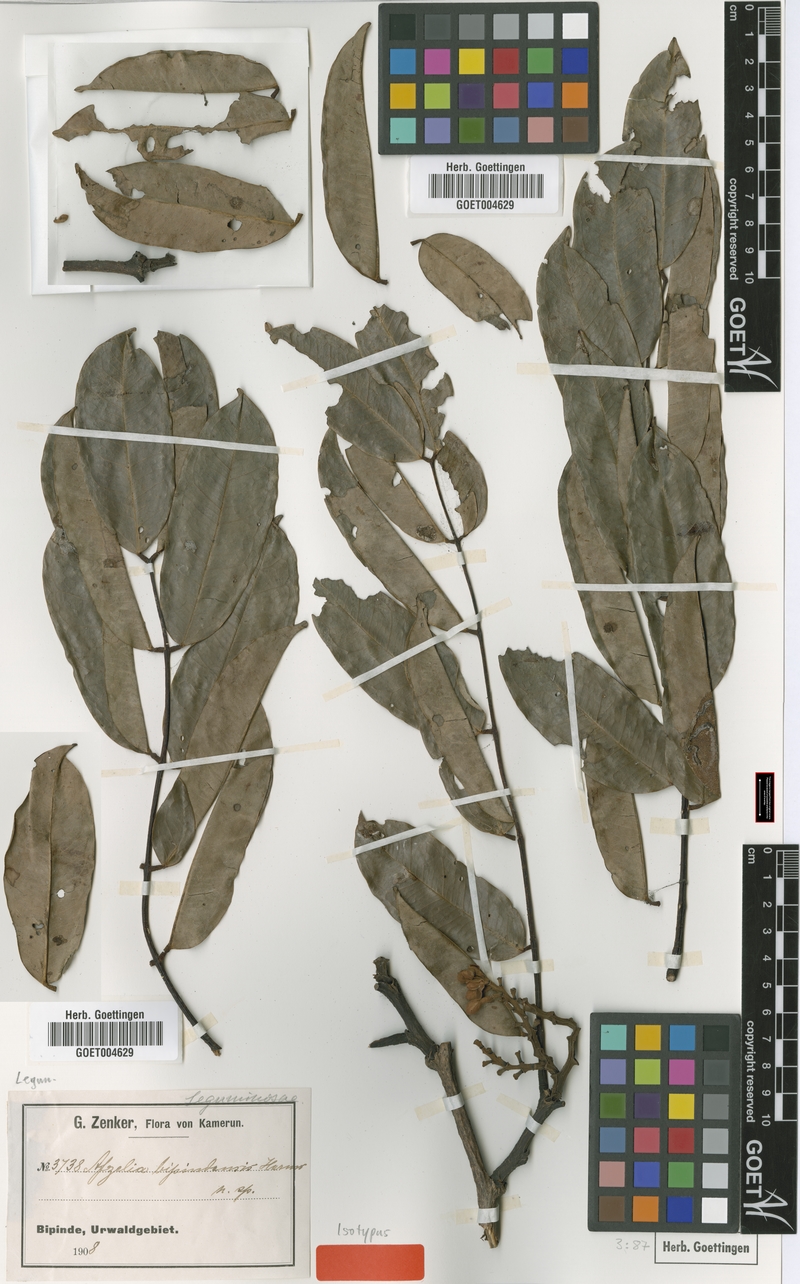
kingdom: Plantae
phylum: Tracheophyta
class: Magnoliopsida
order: Fabales
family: Fabaceae
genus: Afzelia
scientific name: Afzelia bipindensis
